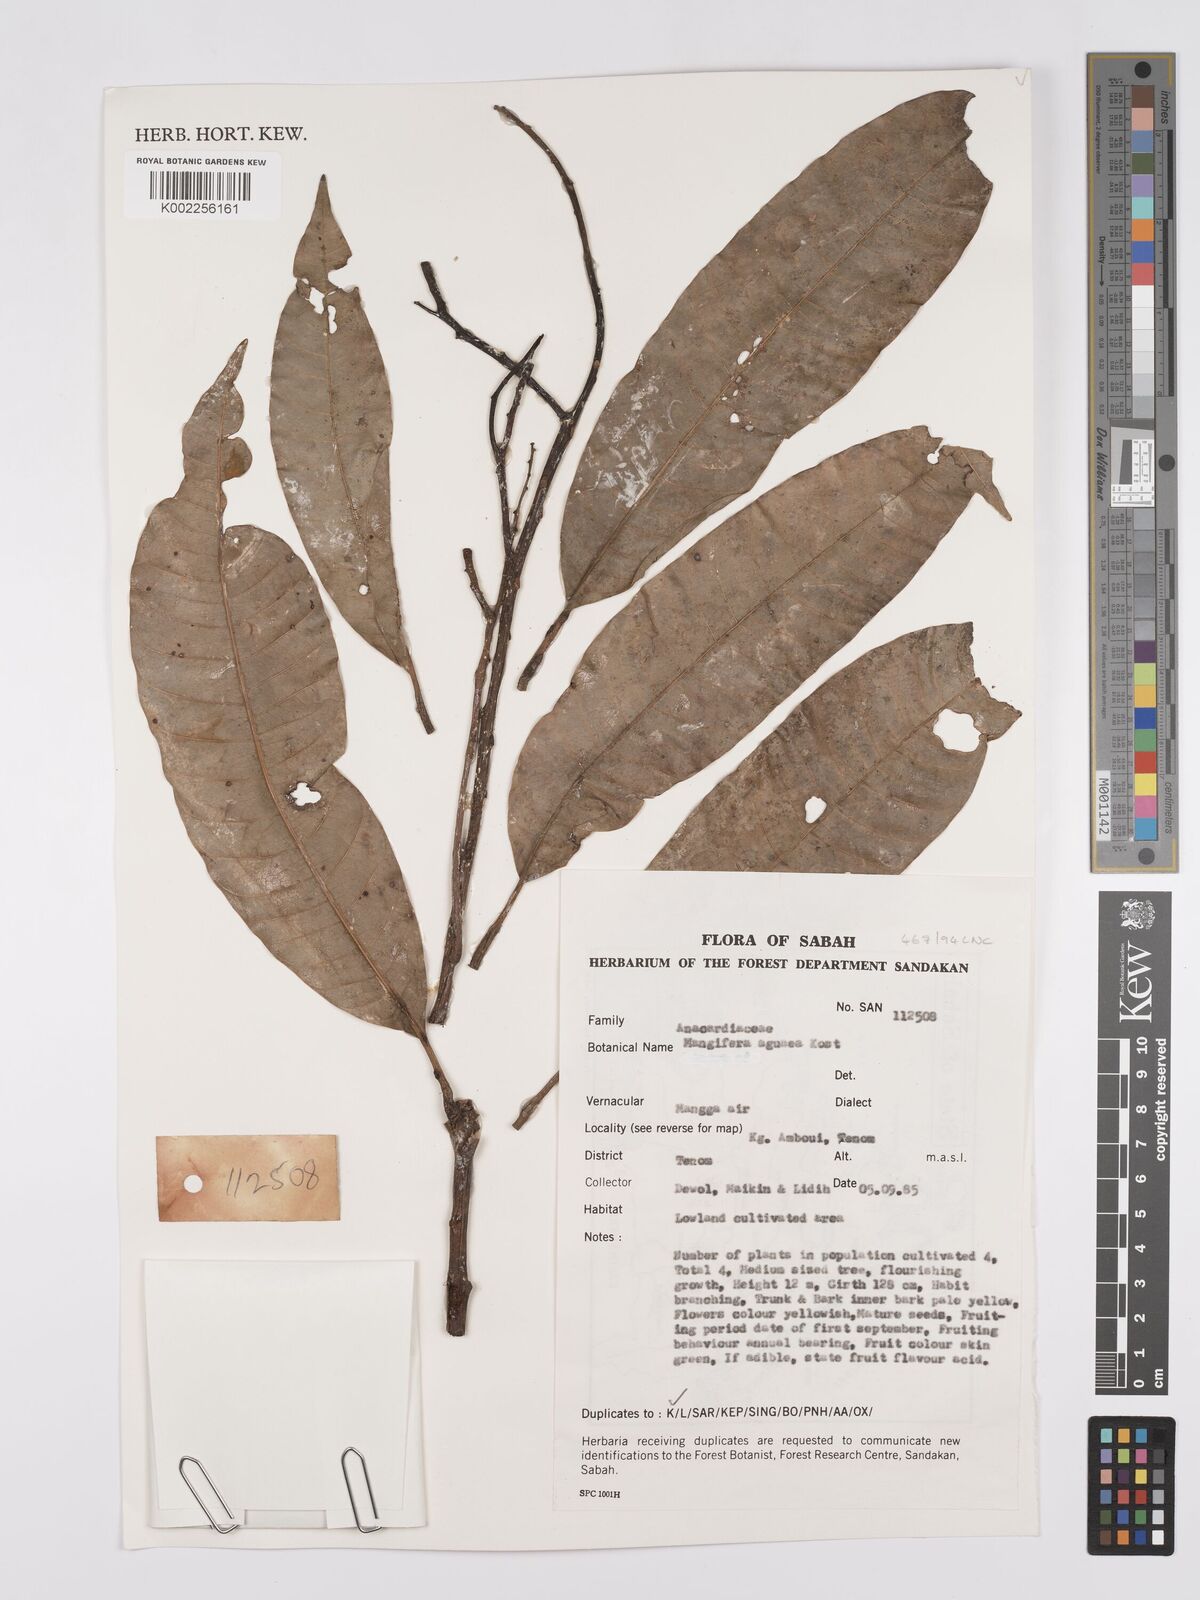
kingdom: Plantae
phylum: Tracheophyta
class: Magnoliopsida
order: Sapindales
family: Anacardiaceae
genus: Mangifera
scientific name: Mangifera laurina
